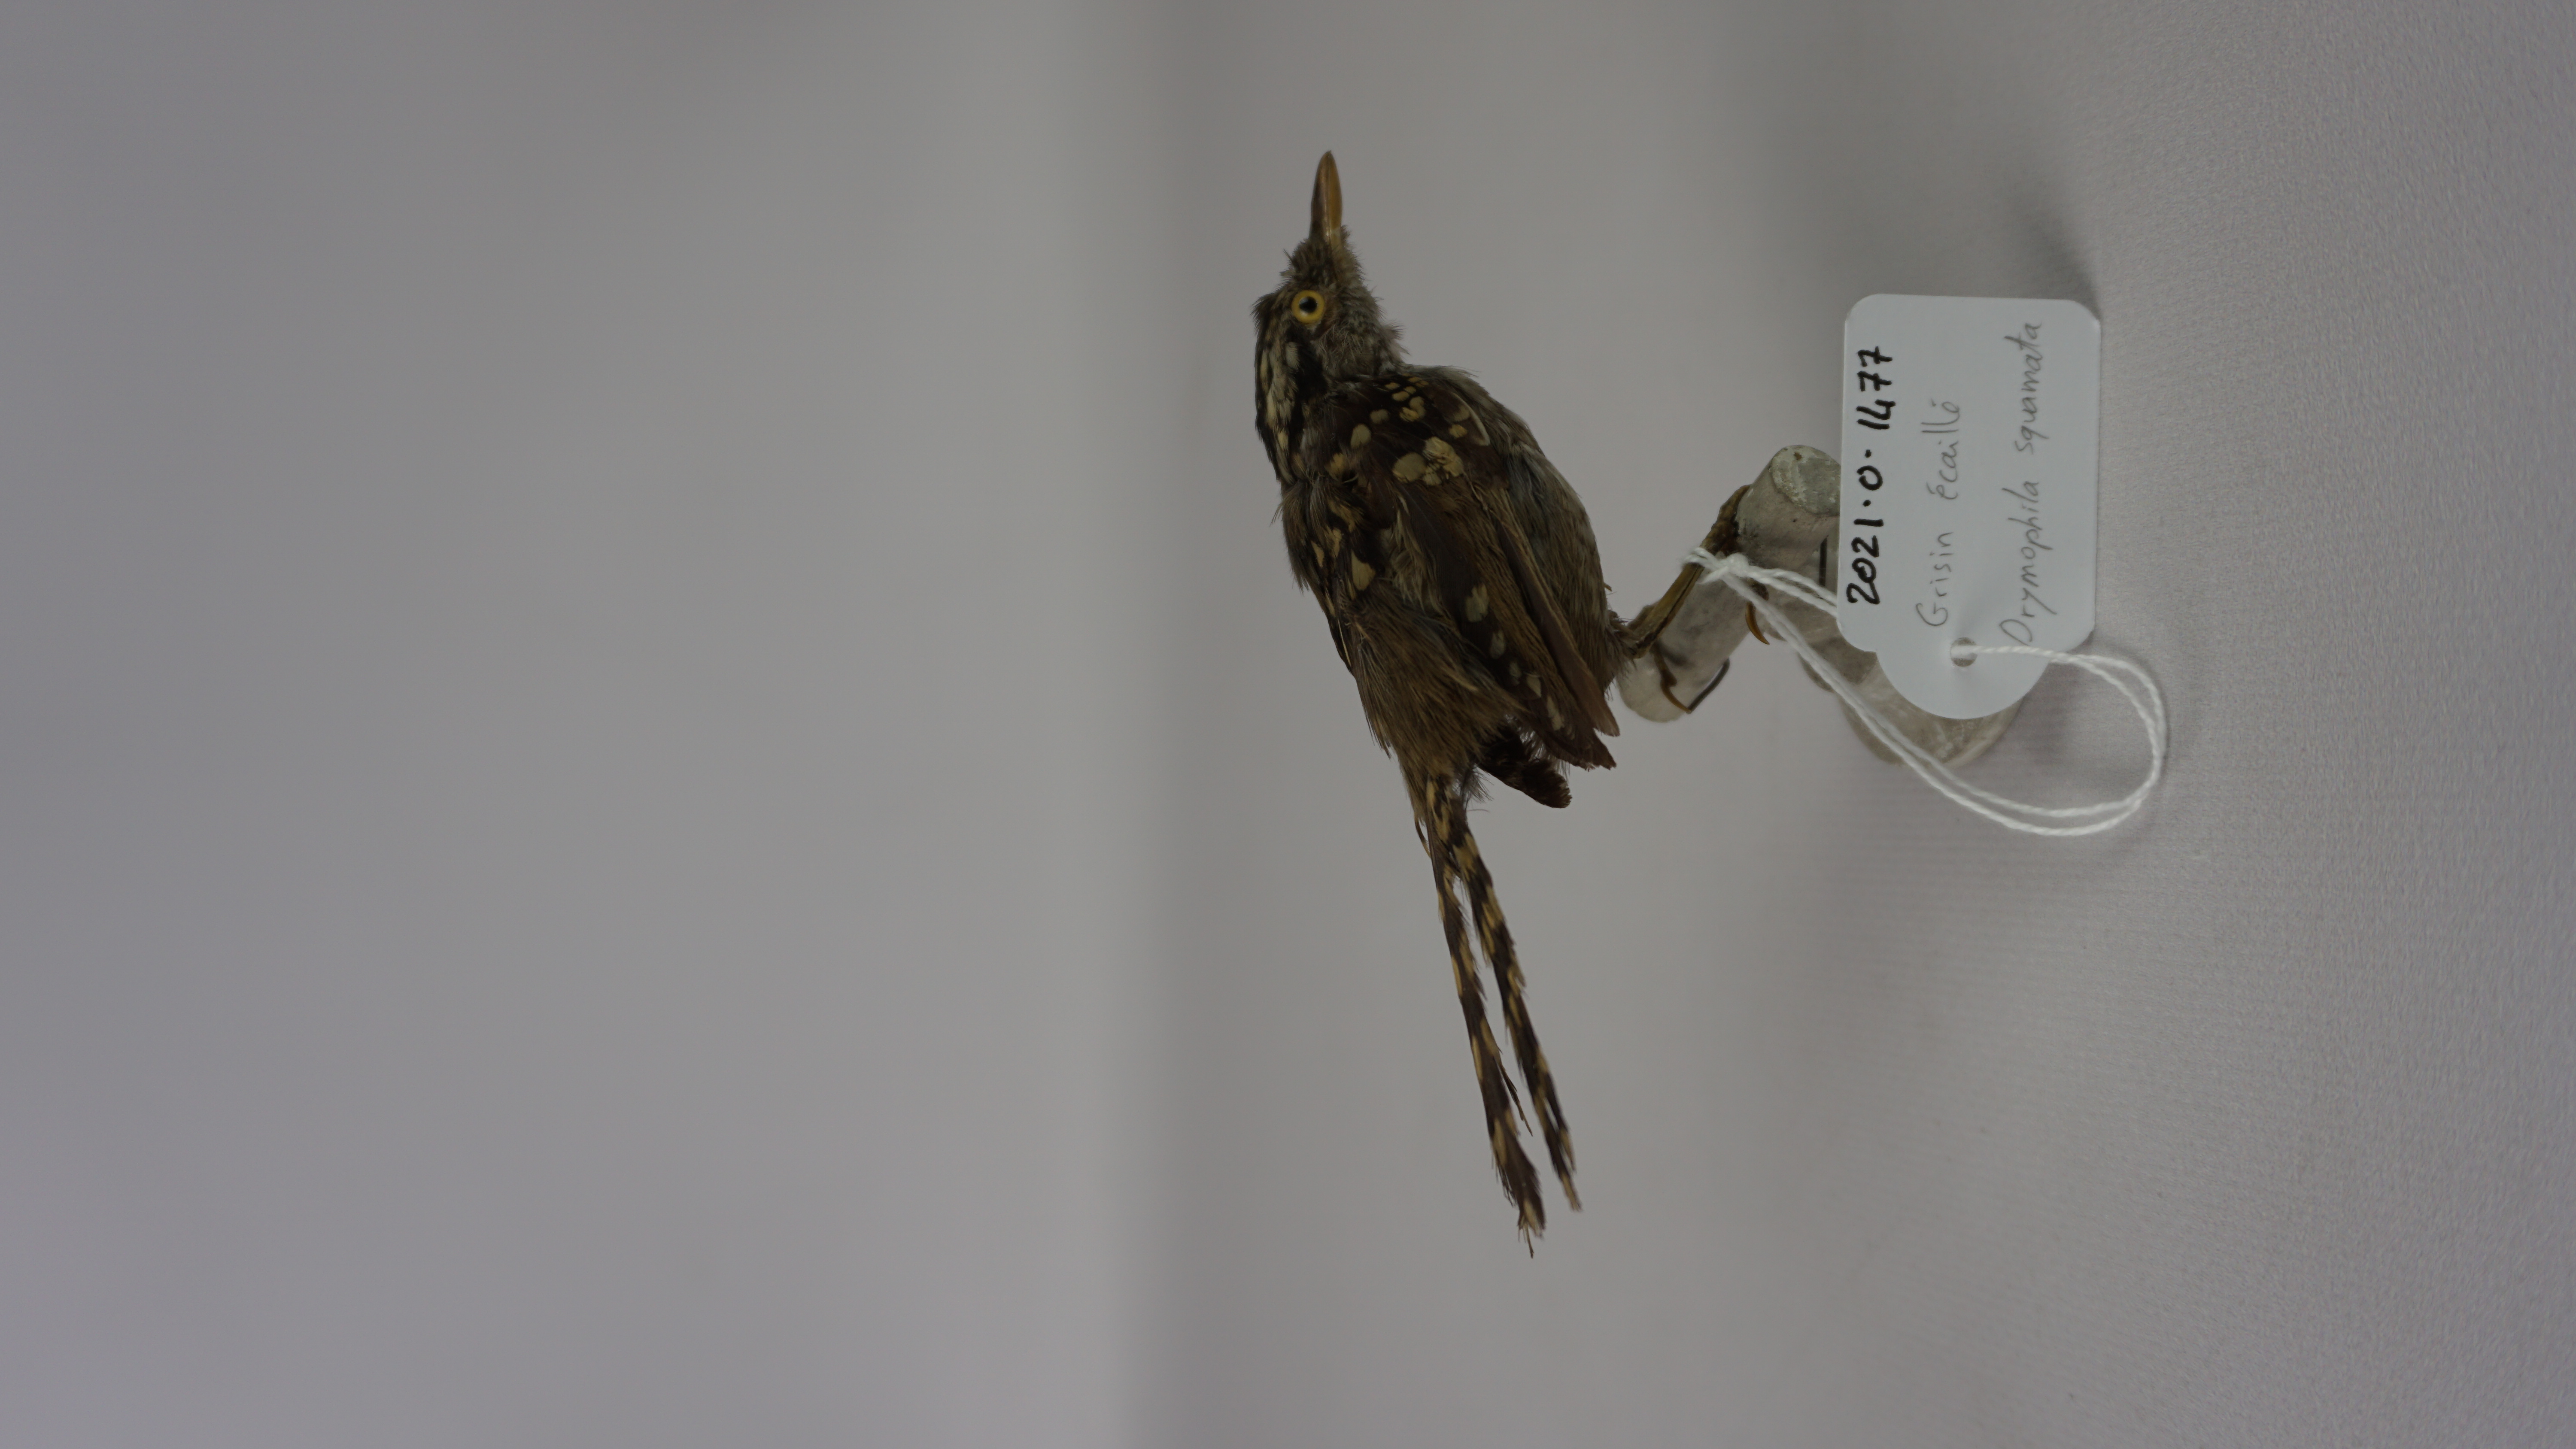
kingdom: Animalia
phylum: Chordata
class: Aves
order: Passeriformes
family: Thamnophilidae
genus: Drymophila
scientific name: Drymophila squamata
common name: Scaled antbird
